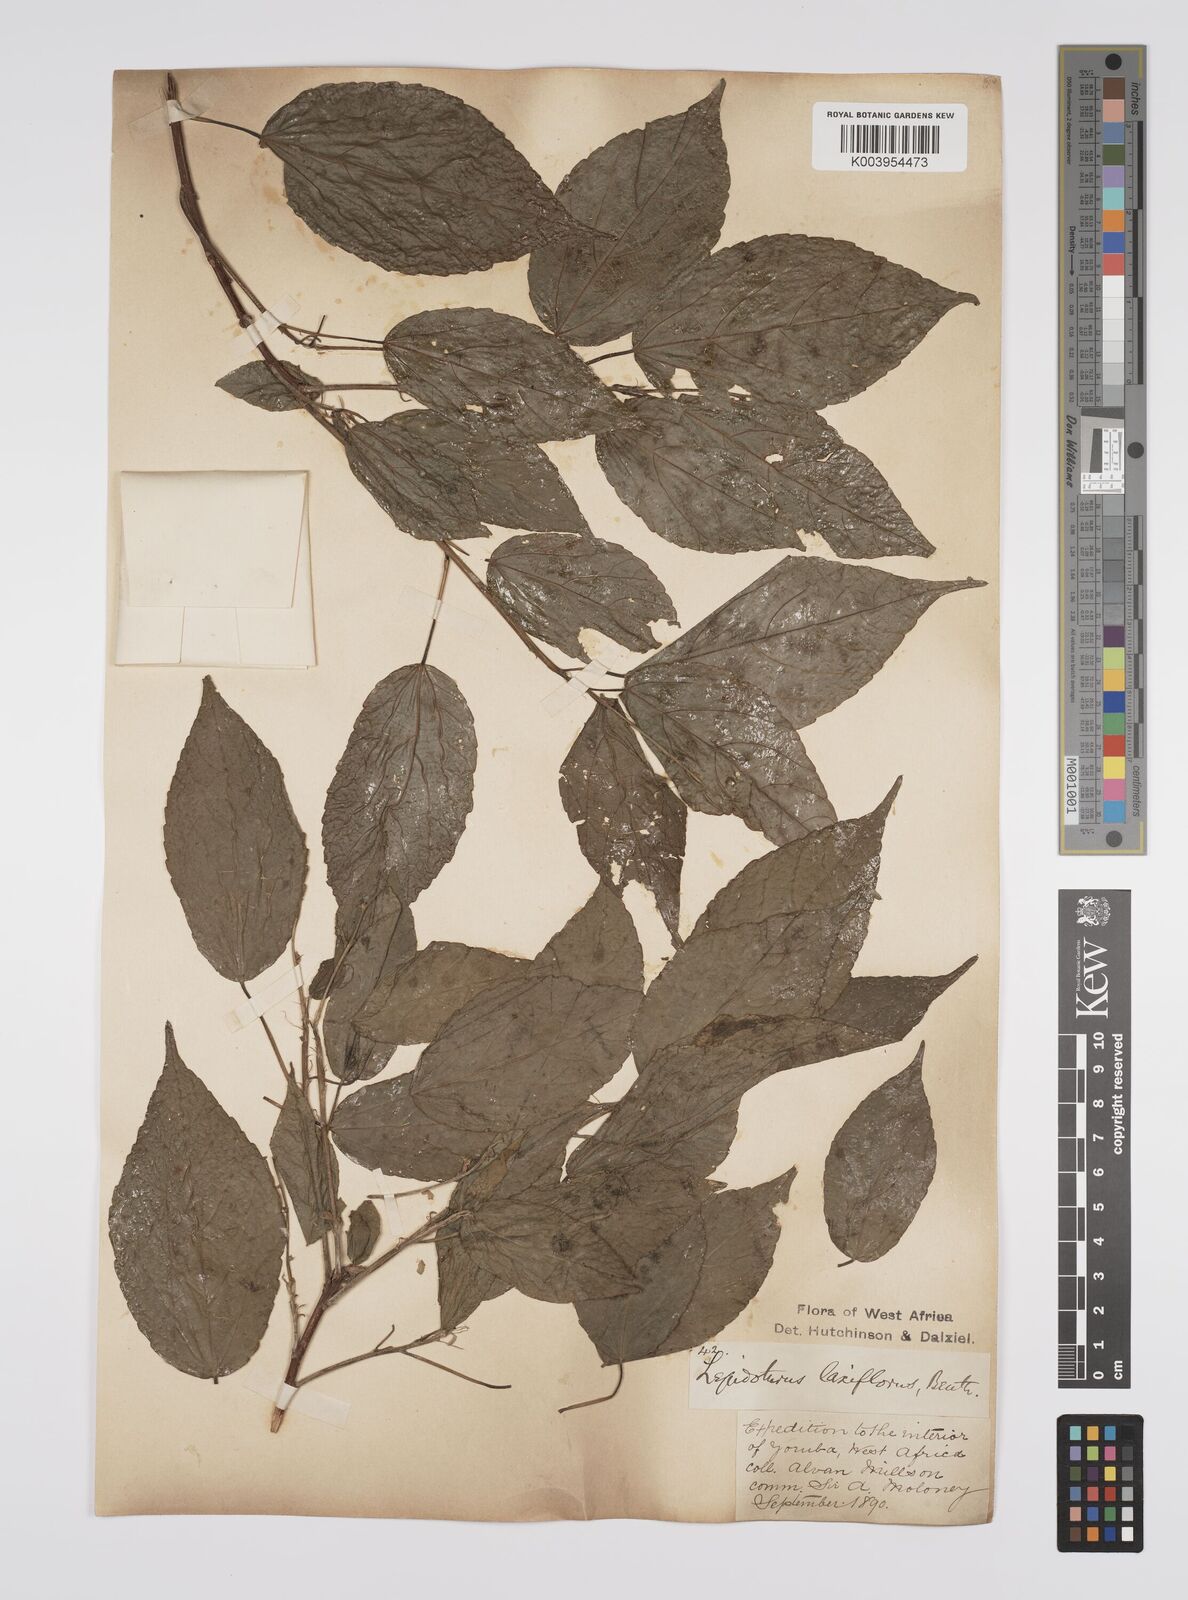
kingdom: Plantae
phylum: Tracheophyta
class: Magnoliopsida
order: Malpighiales
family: Euphorbiaceae
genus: Alchornea
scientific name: Alchornea laxiflora
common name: Lowveld bead-string
